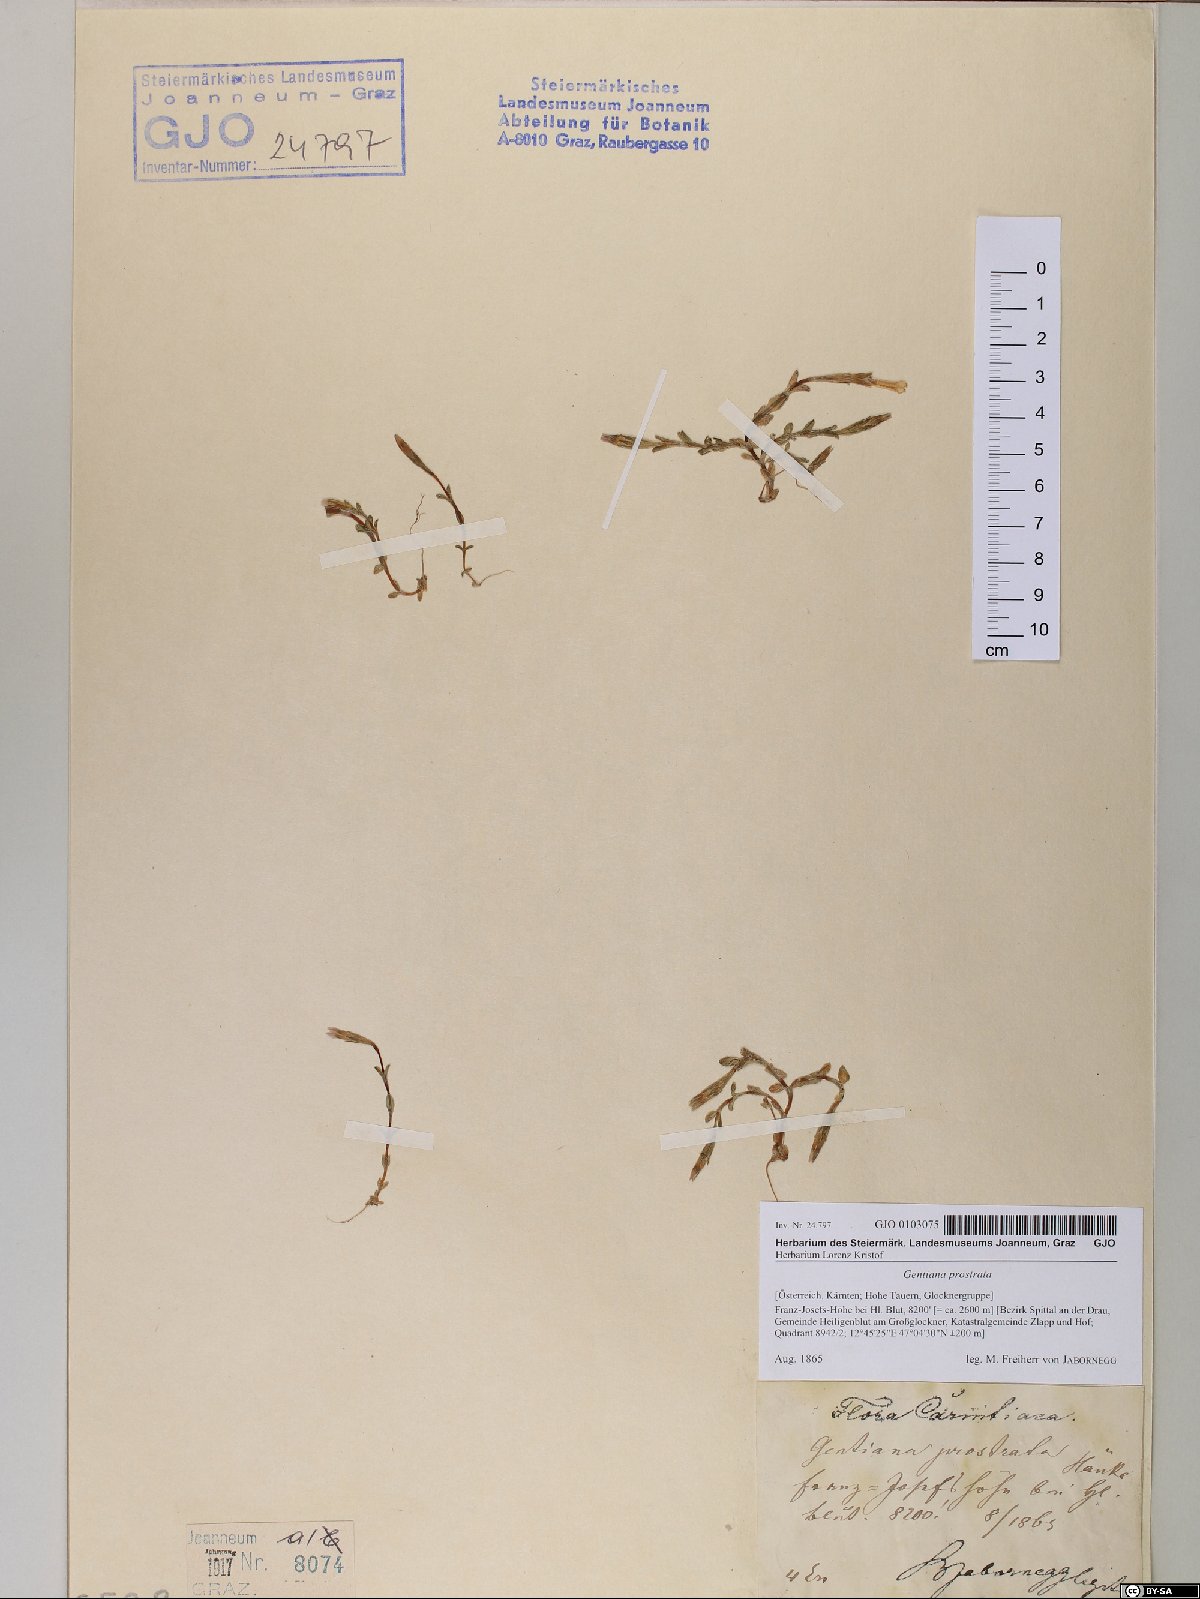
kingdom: Plantae
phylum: Tracheophyta
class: Magnoliopsida
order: Gentianales
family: Gentianaceae
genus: Gentiana
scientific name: Gentiana prostrata
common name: Moss gentian
